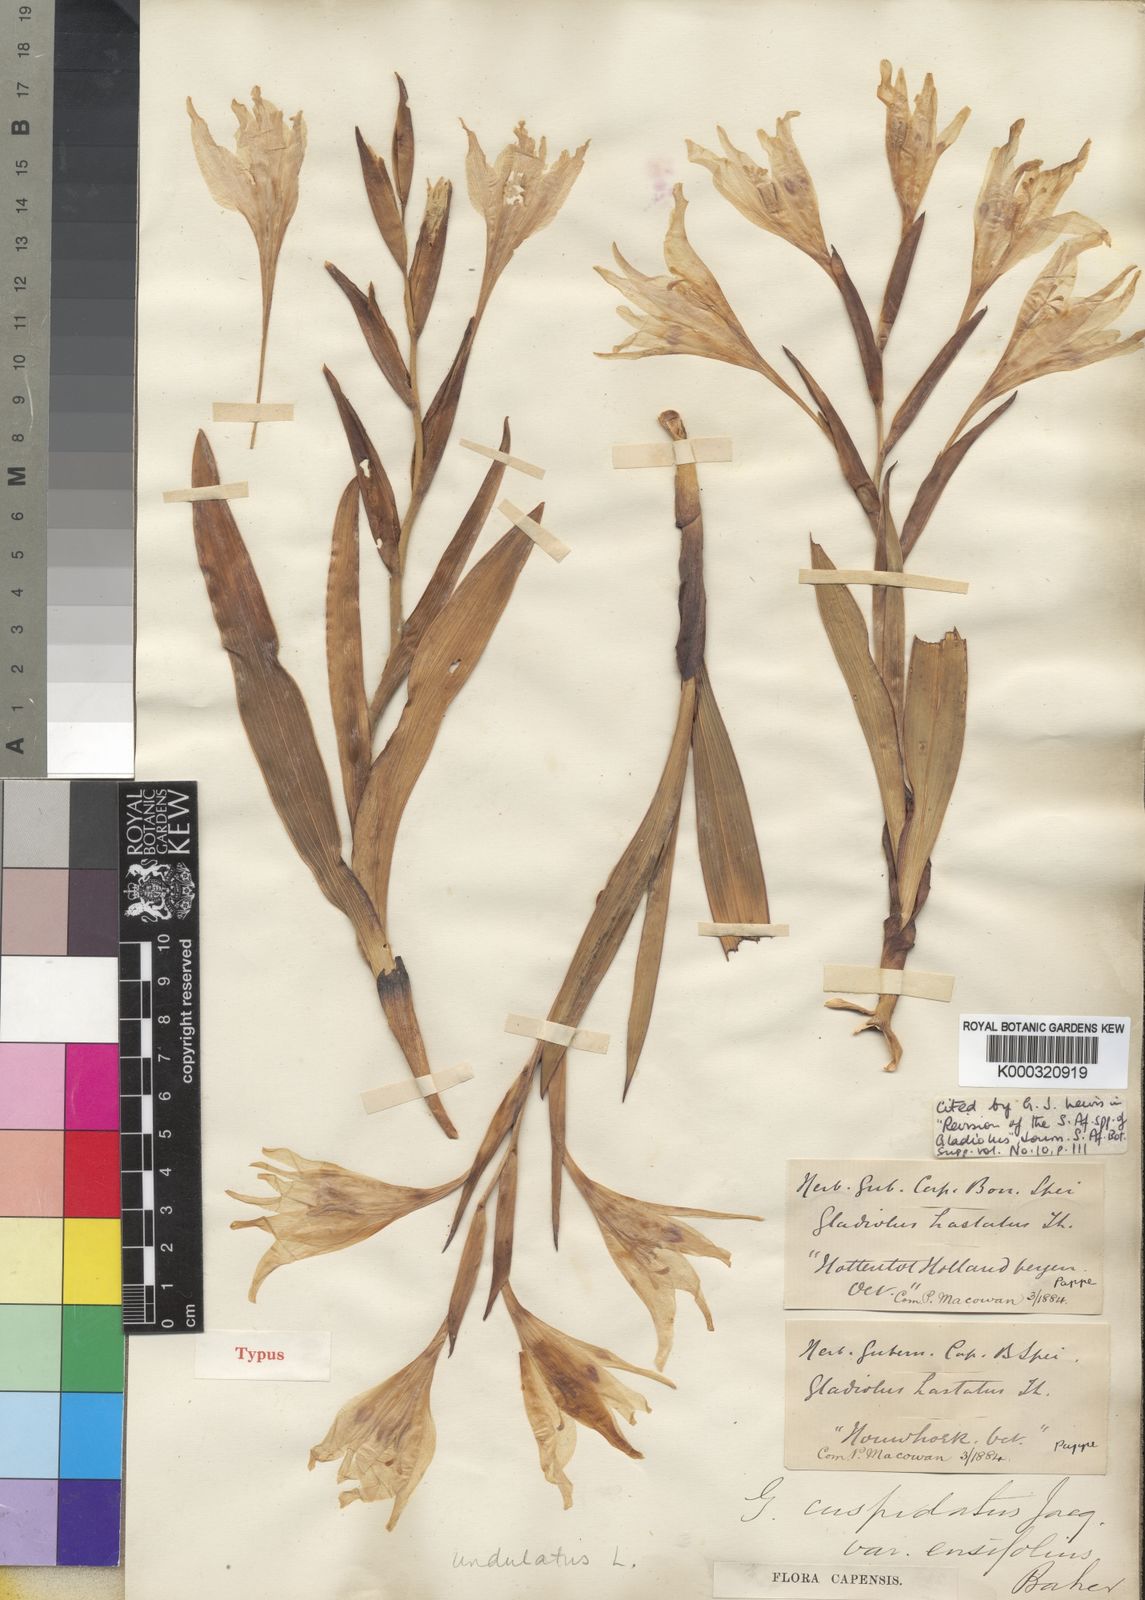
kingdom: Plantae
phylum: Tracheophyta
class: Liliopsida
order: Asparagales
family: Iridaceae
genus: Gladiolus
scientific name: Gladiolus carneus
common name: Painted-lady
